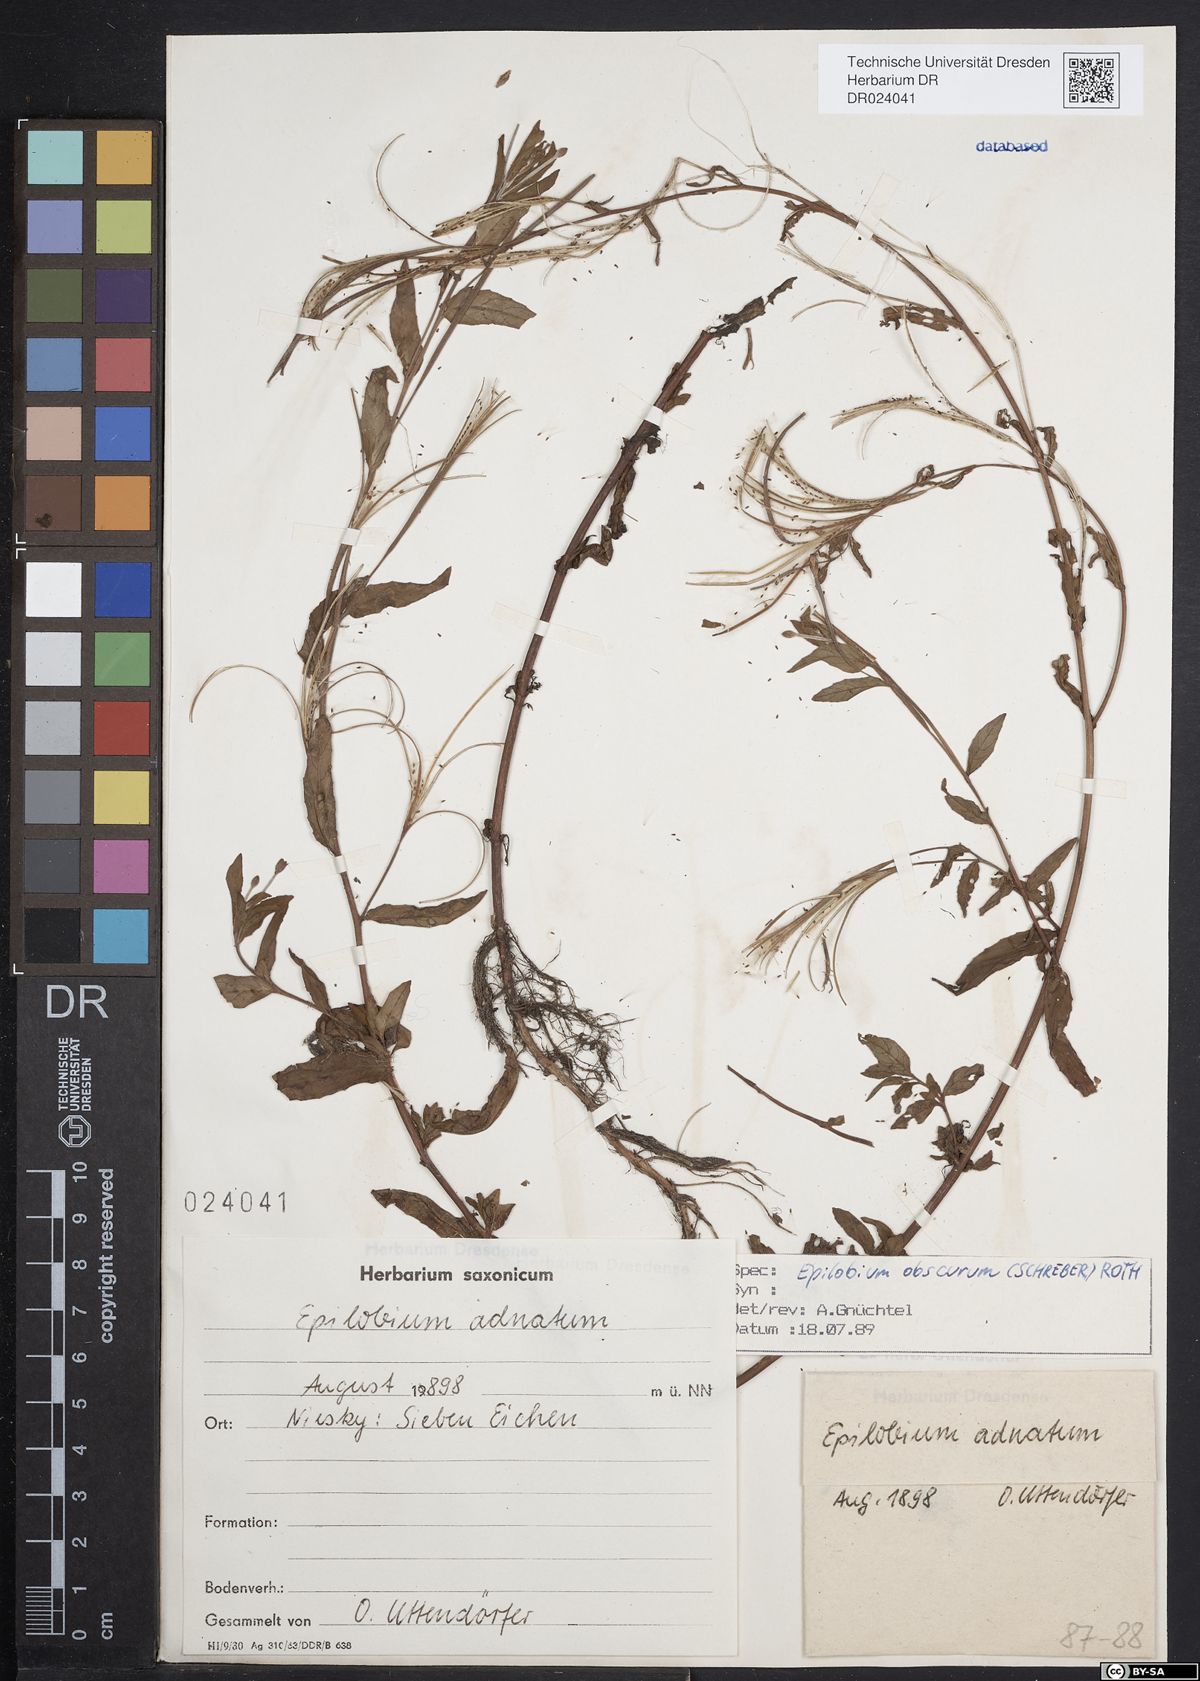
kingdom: Plantae
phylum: Tracheophyta
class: Magnoliopsida
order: Myrtales
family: Onagraceae
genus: Epilobium
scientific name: Epilobium obscurum
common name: Short-fruited willowherb
